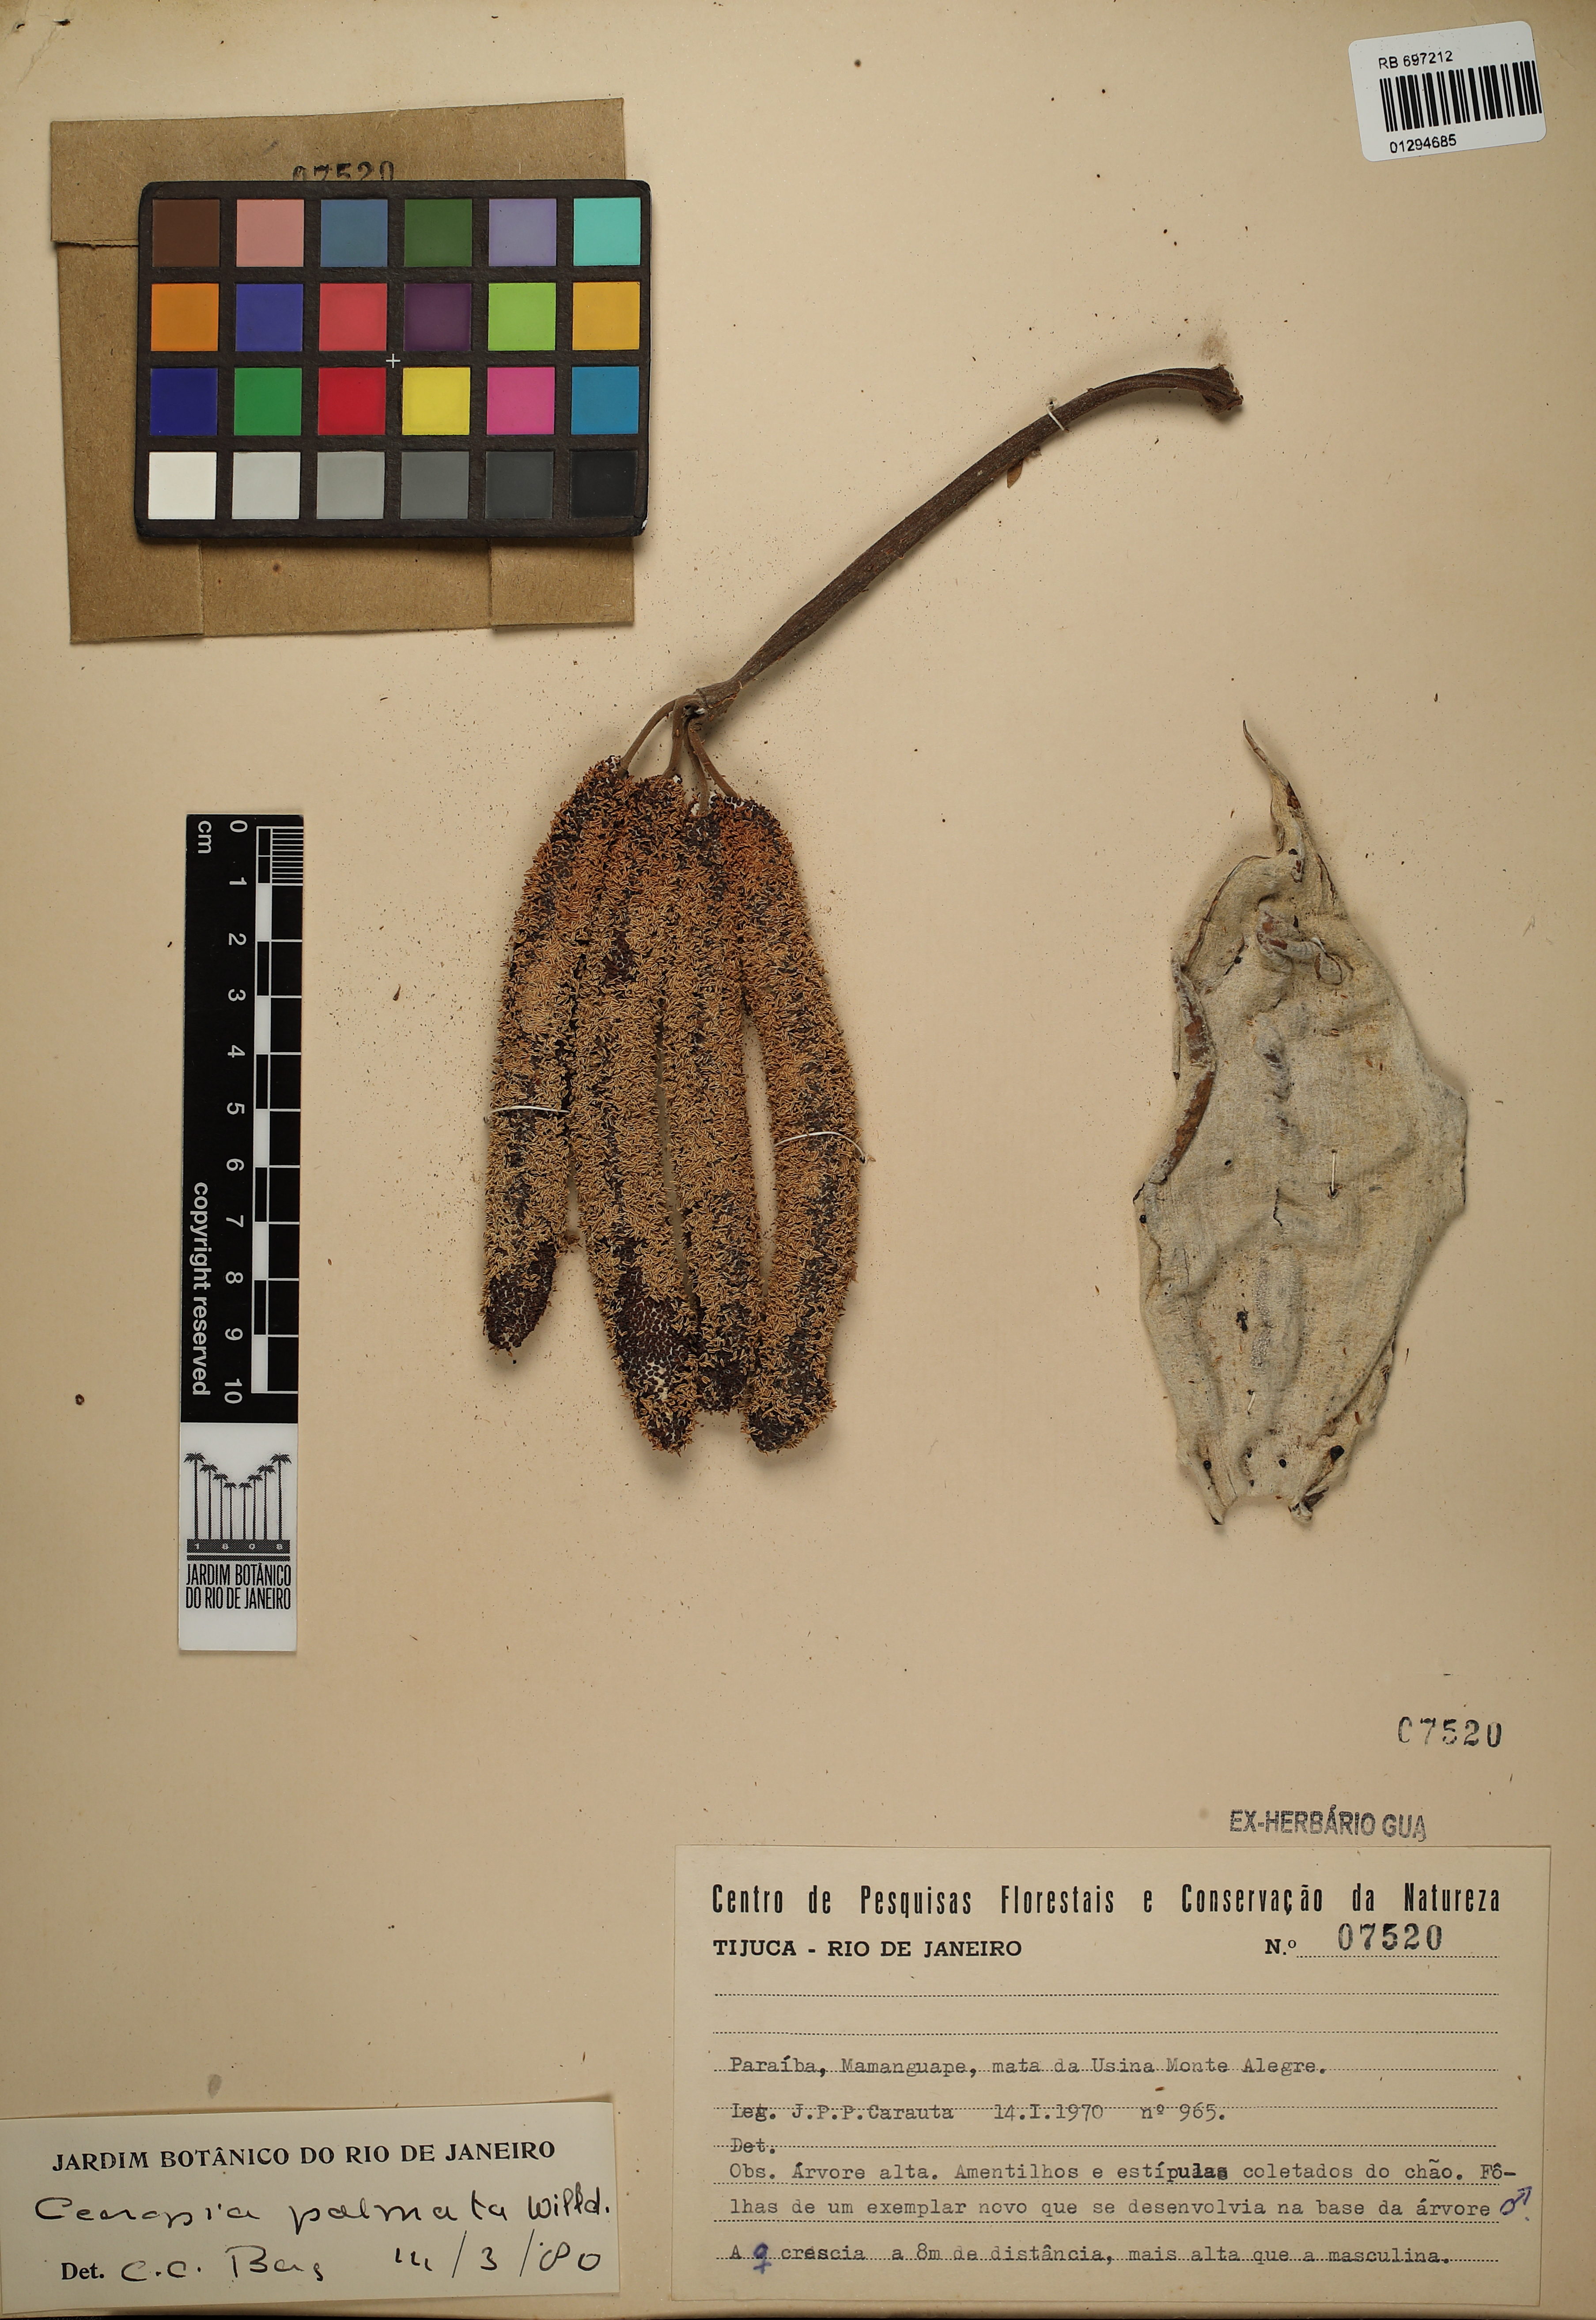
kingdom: Plantae
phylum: Tracheophyta
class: Magnoliopsida
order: Rosales
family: Urticaceae
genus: Cecropia
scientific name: Cecropia palmata
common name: Trumpet tree
